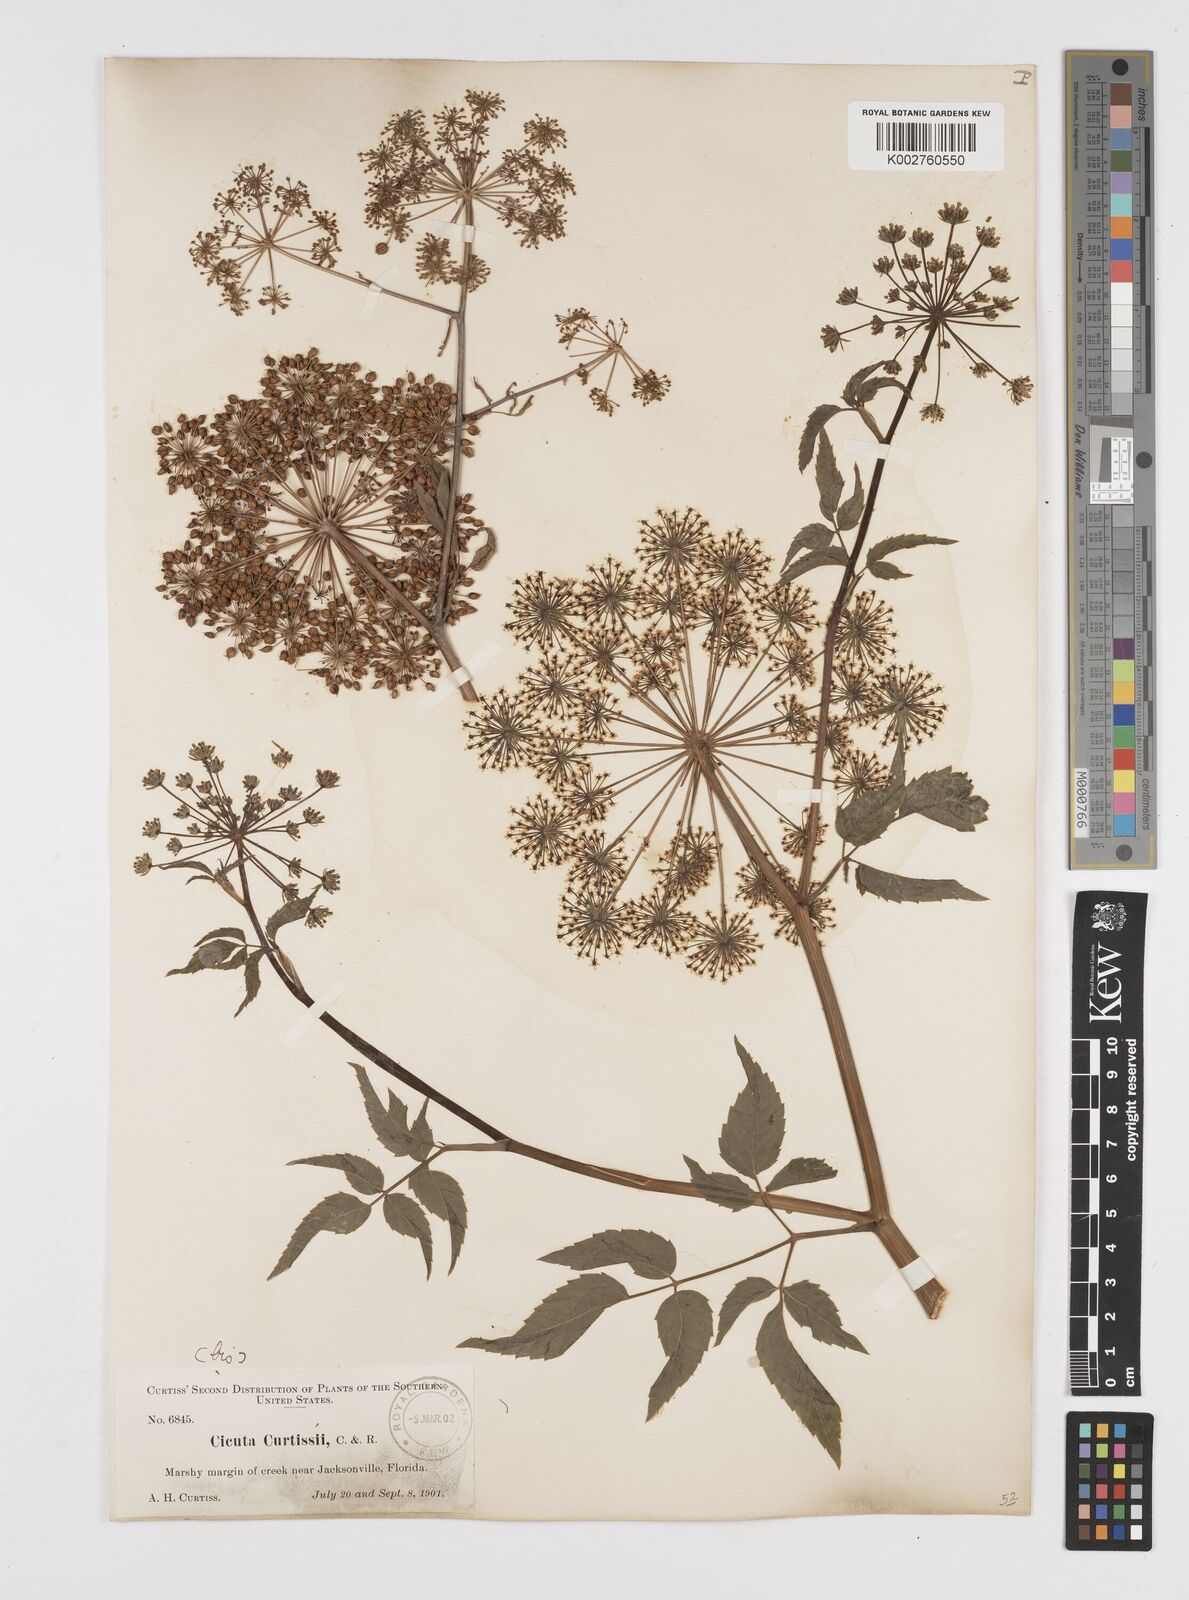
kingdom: Plantae
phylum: Tracheophyta
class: Magnoliopsida
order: Apiales
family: Apiaceae
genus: Cicuta
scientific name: Cicuta douglasii
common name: Western water-hemlock
